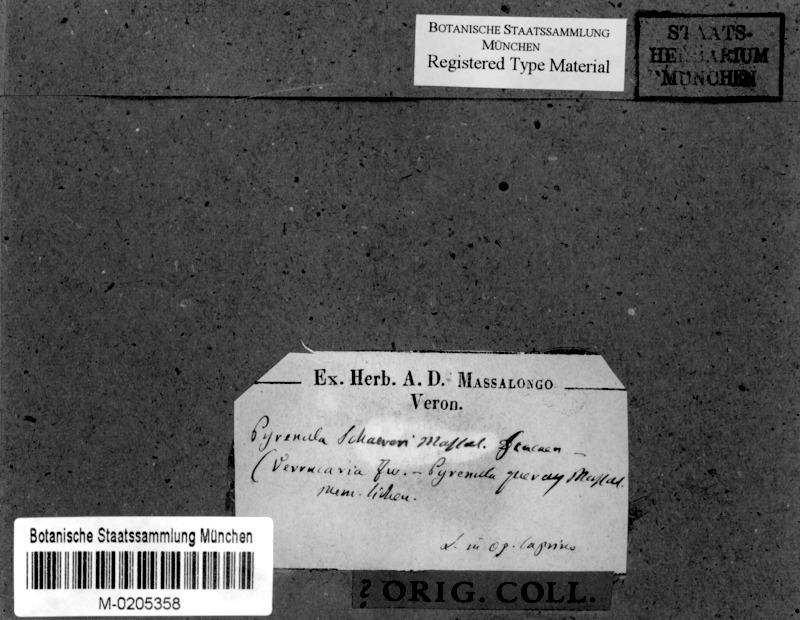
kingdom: Fungi
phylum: Ascomycota
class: Dothideomycetes
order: Pleosporales
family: Dacampiaceae
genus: Eopyrenula
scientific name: Eopyrenula leucoplaca
